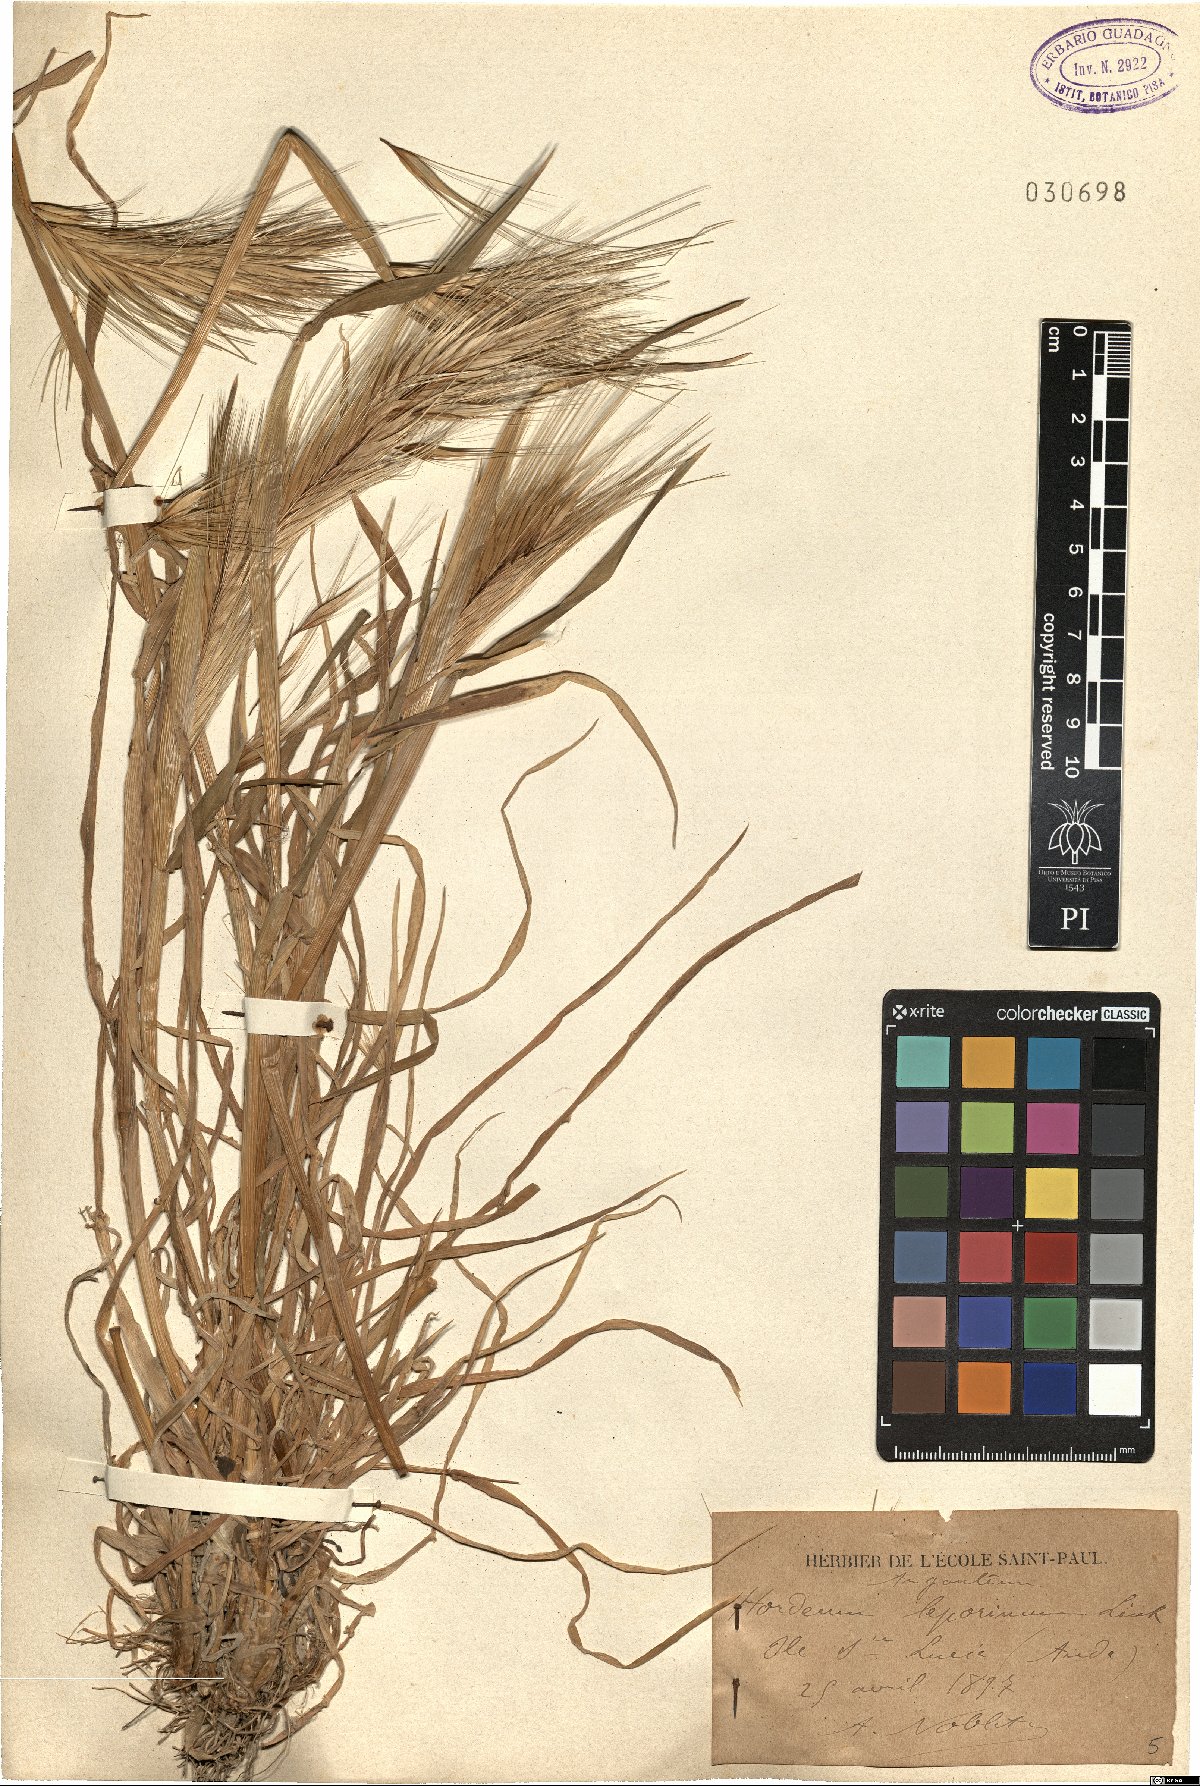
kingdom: Plantae
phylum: Tracheophyta
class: Liliopsida
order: Poales
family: Poaceae
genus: Hordeum
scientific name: Hordeum murinum
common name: Wall barley
